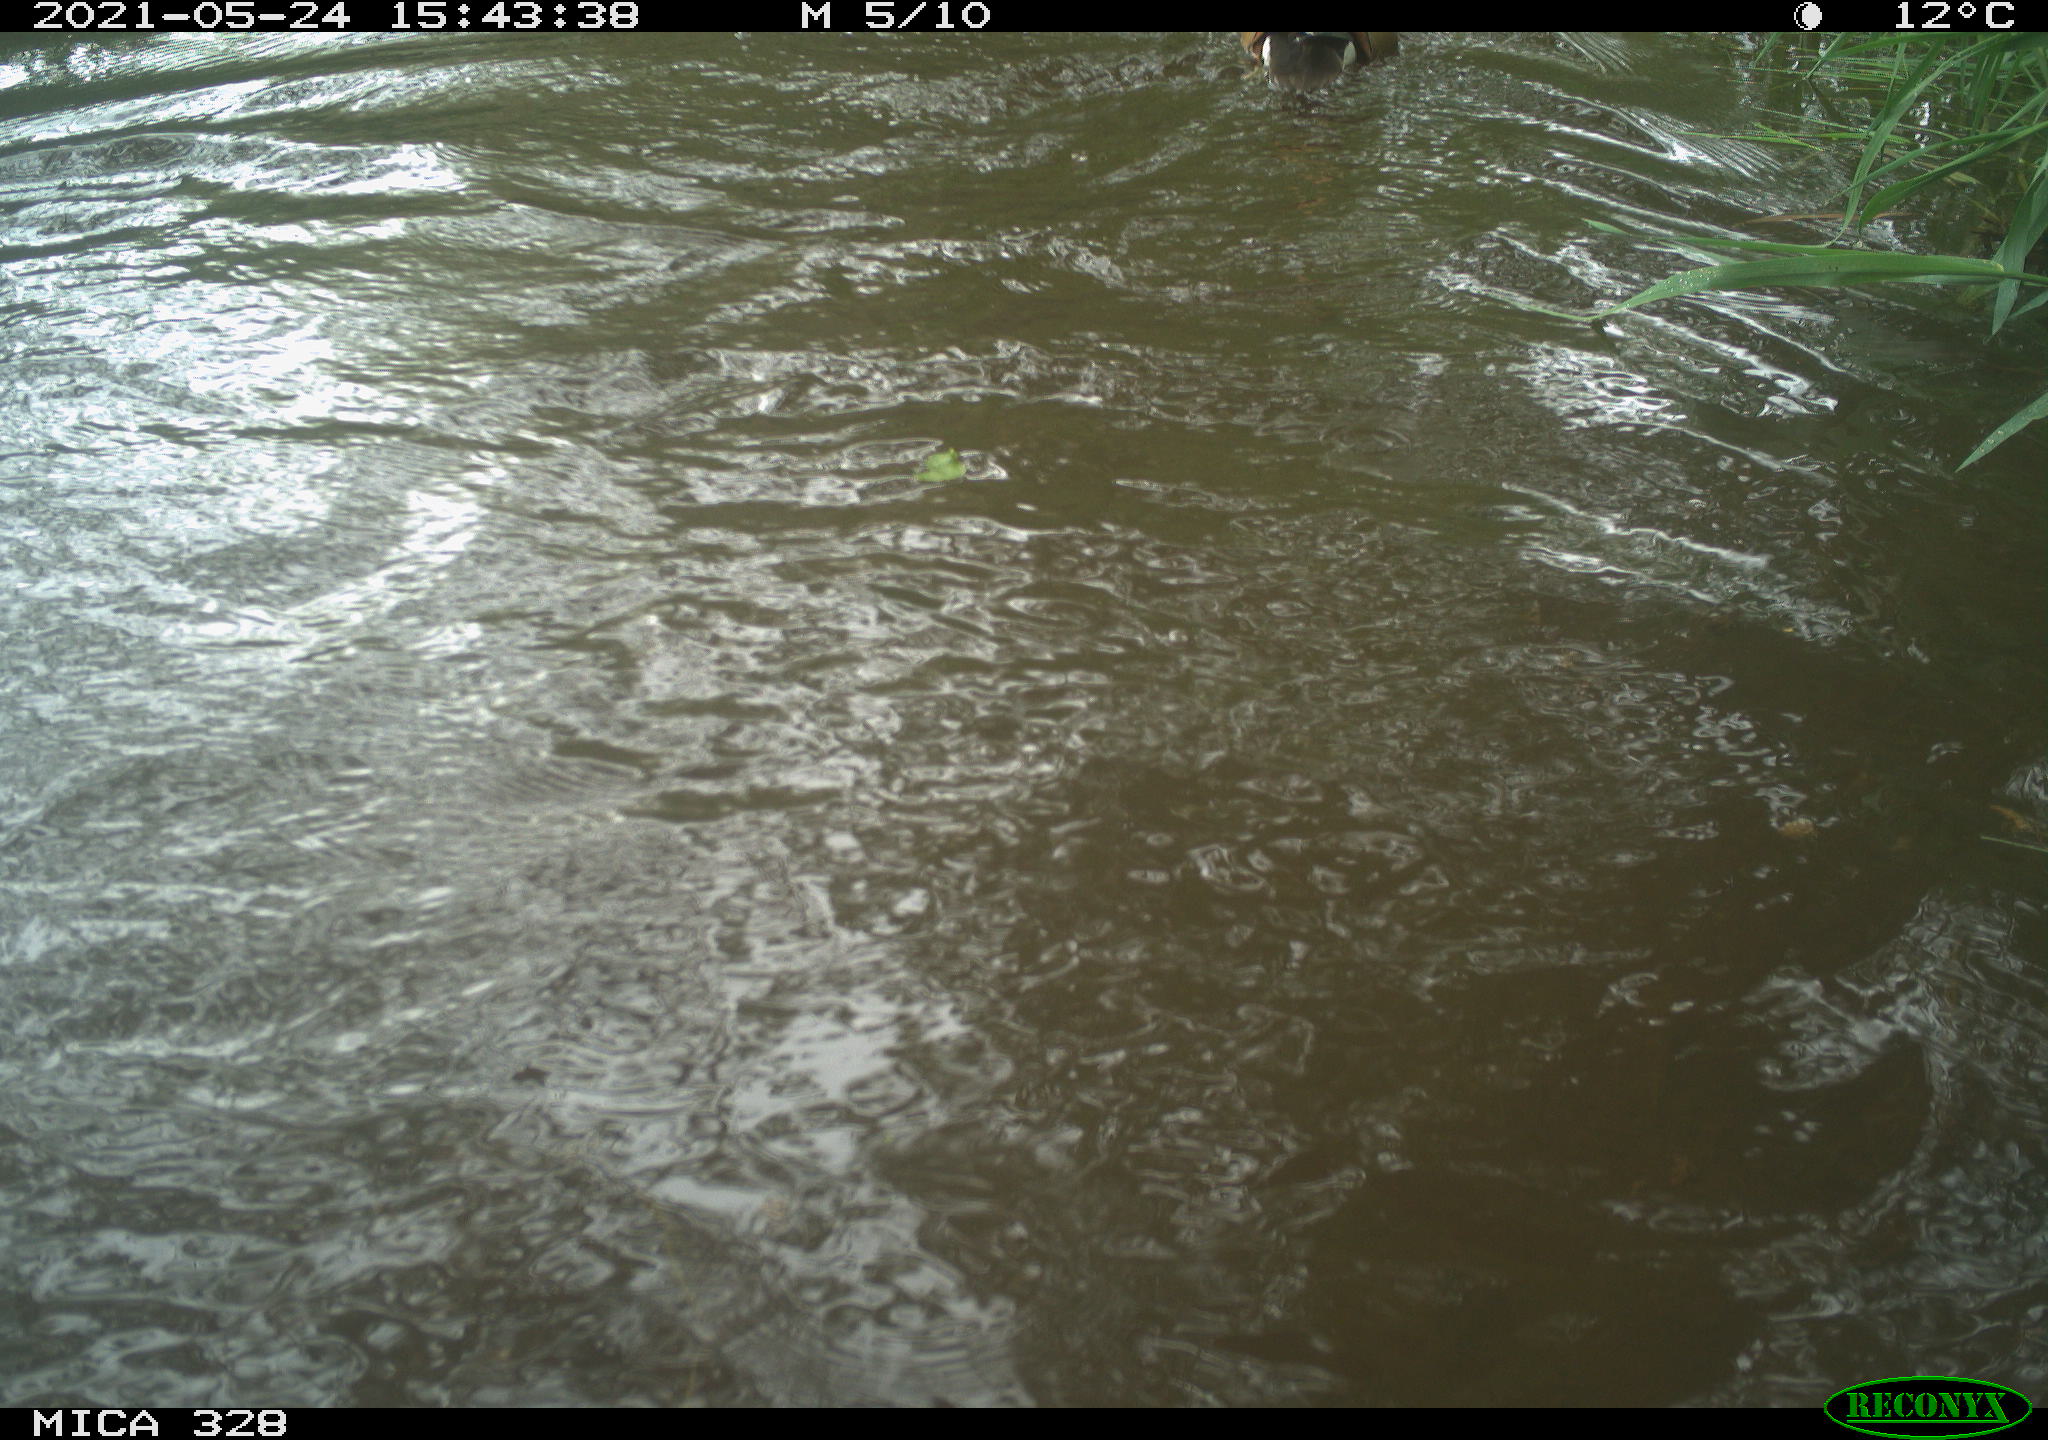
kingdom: Animalia
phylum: Chordata
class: Aves
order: Anseriformes
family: Anatidae
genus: Aix
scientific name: Aix galericulata
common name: Mandarin duck
